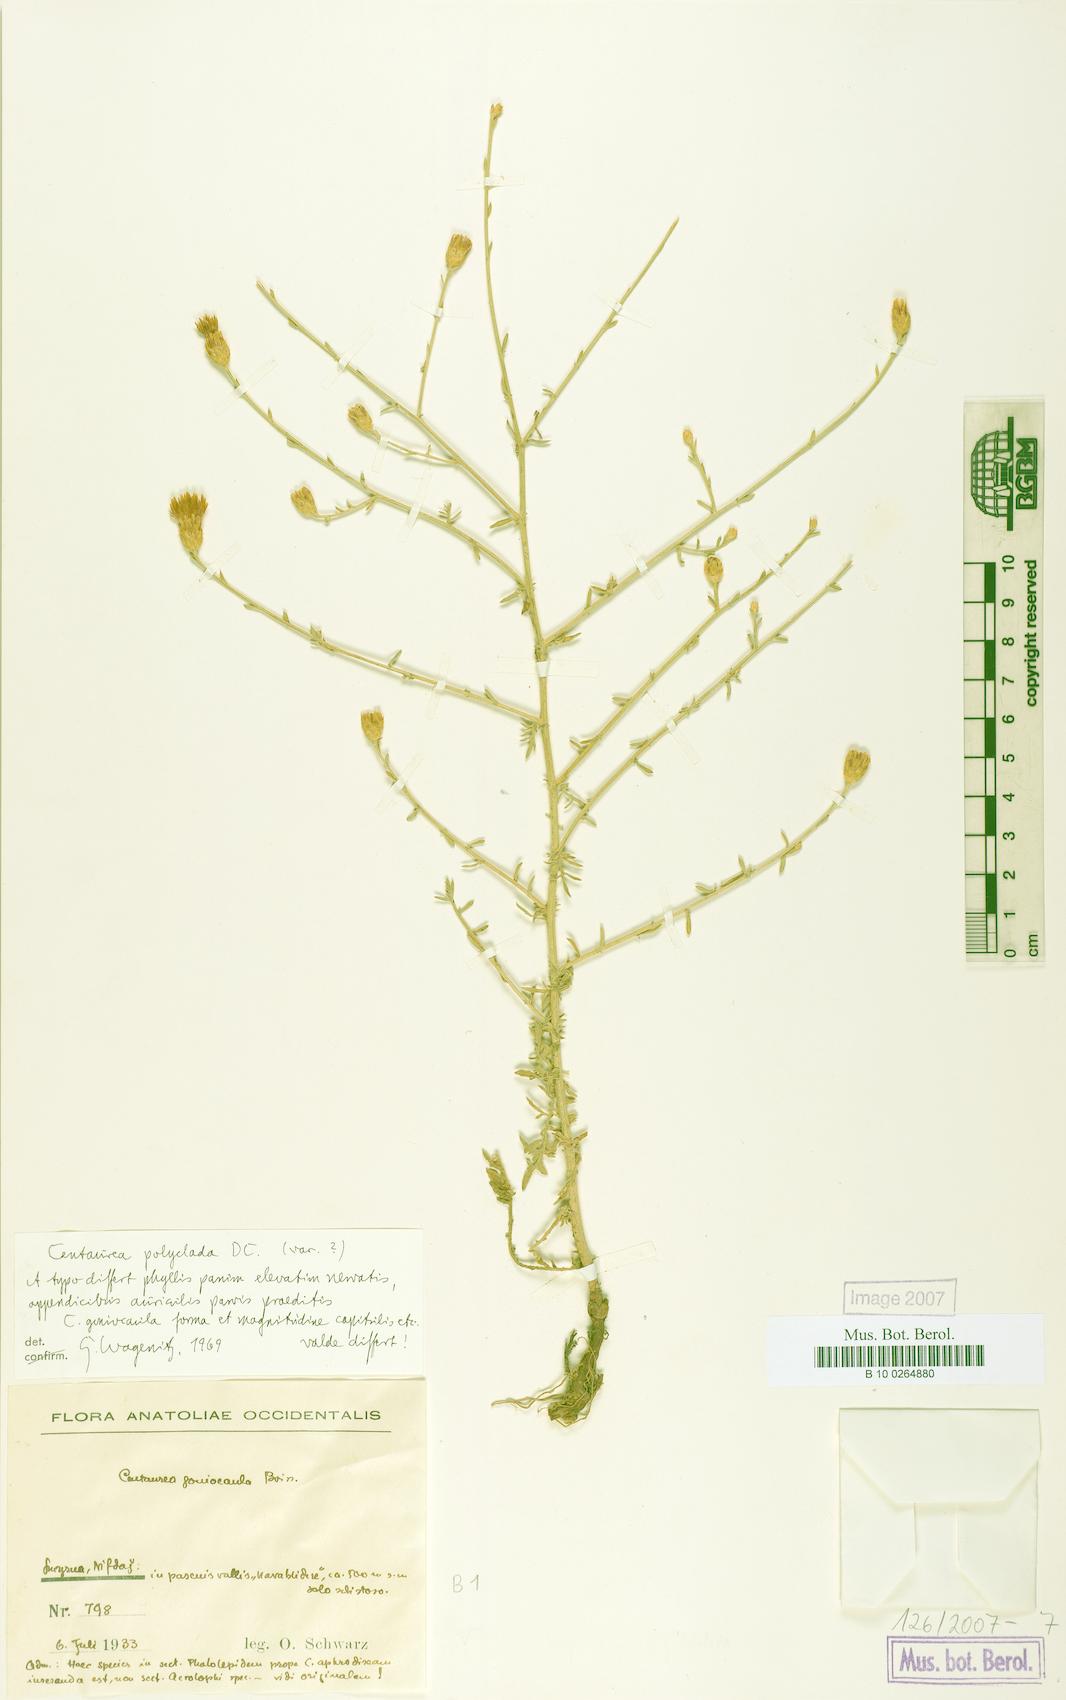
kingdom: Plantae
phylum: Tracheophyta
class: Magnoliopsida
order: Asterales
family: Asteraceae
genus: Centaurea
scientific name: Centaurea polyclada
